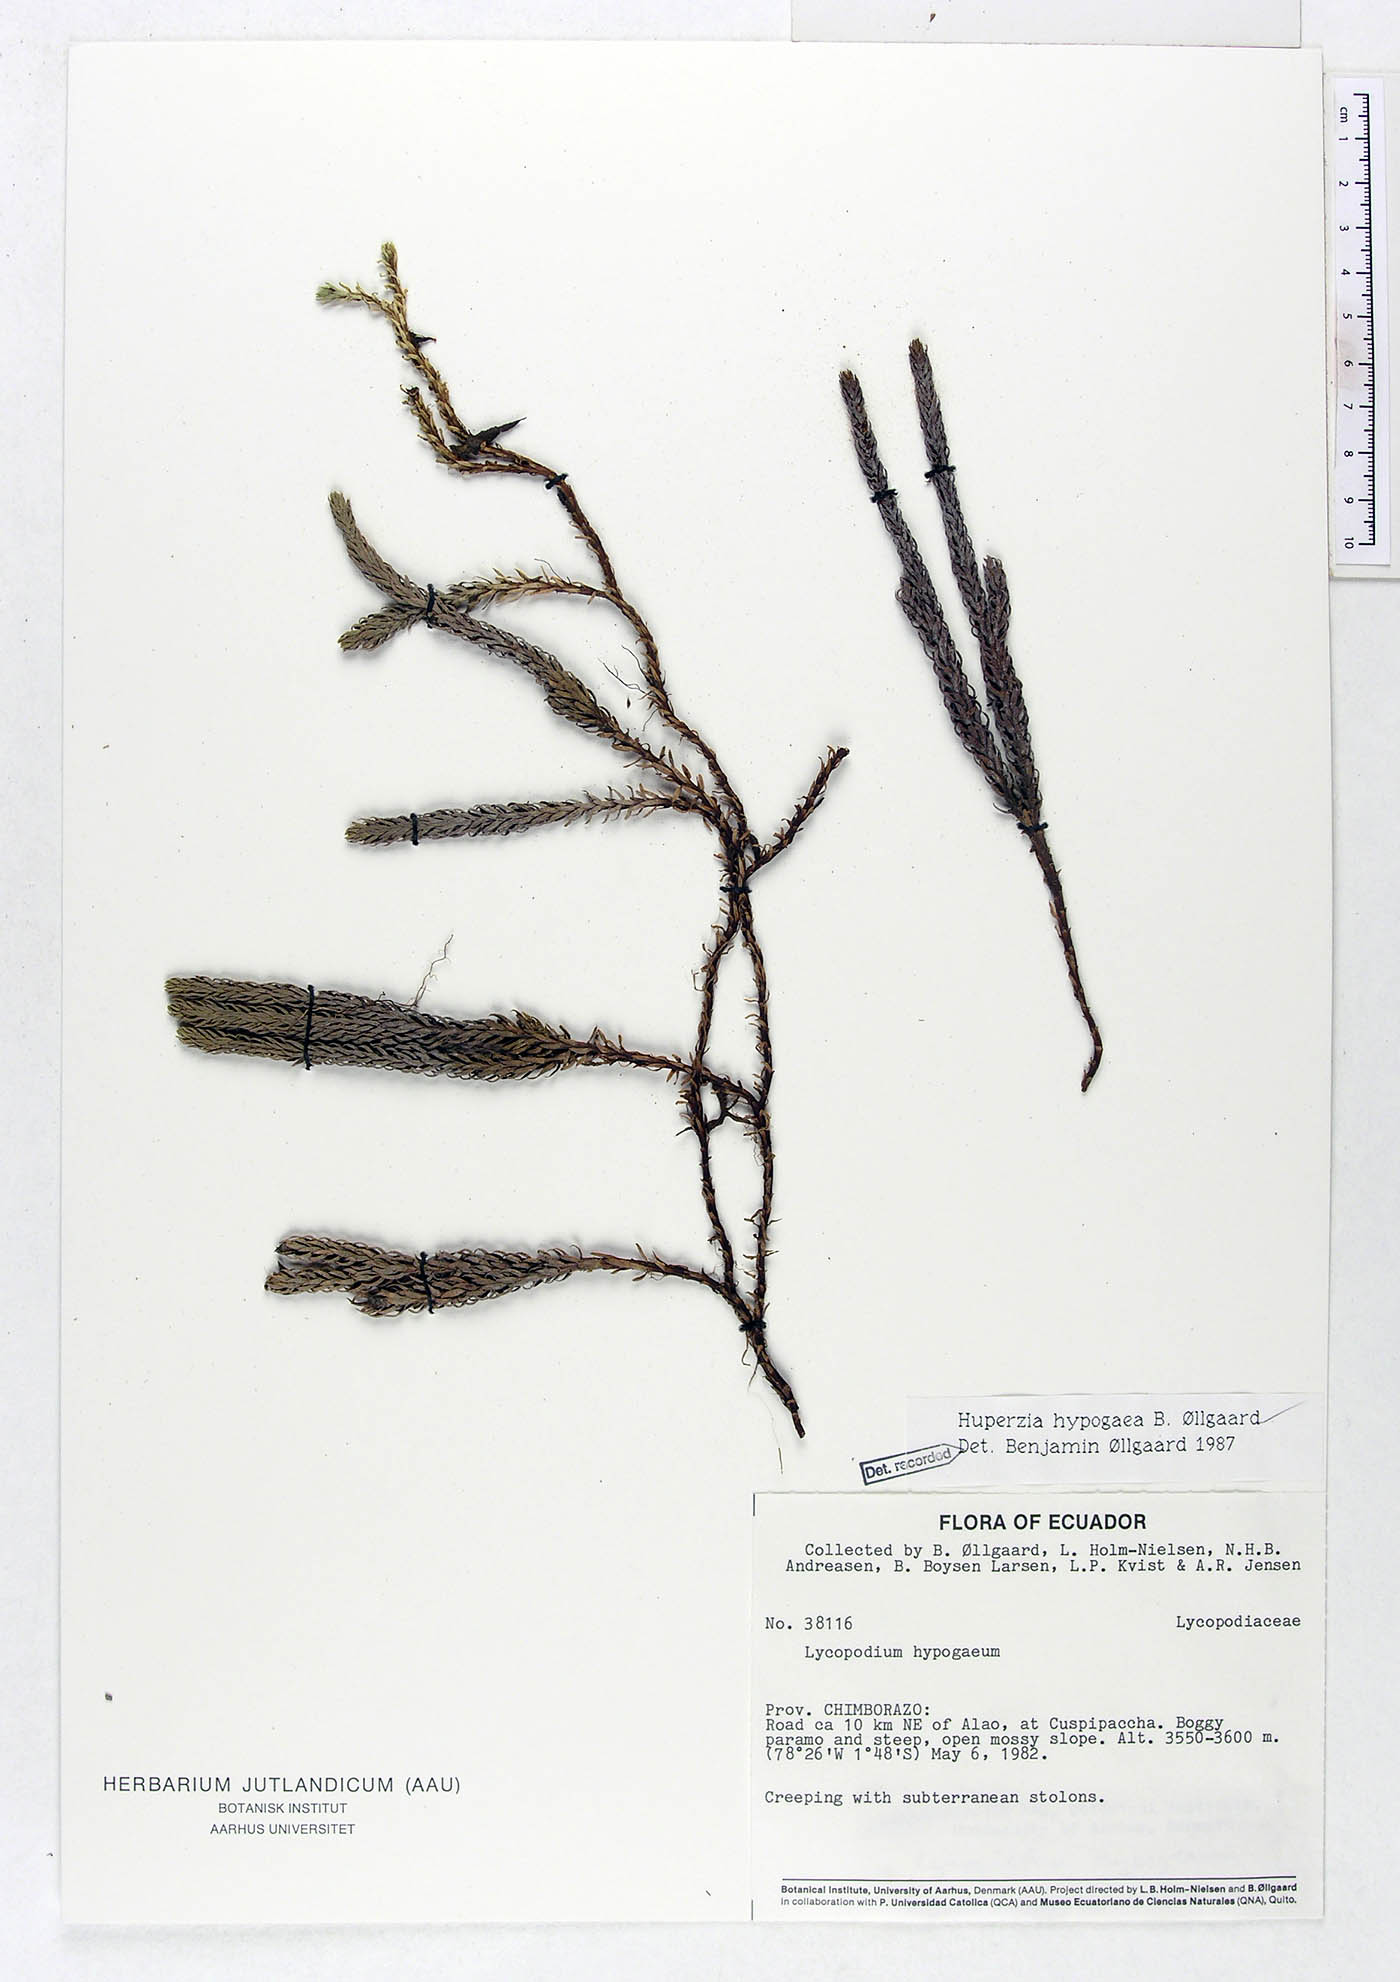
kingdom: Plantae
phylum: Tracheophyta
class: Lycopodiopsida
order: Lycopodiales
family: Lycopodiaceae
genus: Phlegmariurus
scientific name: Phlegmariurus hypogaeus
